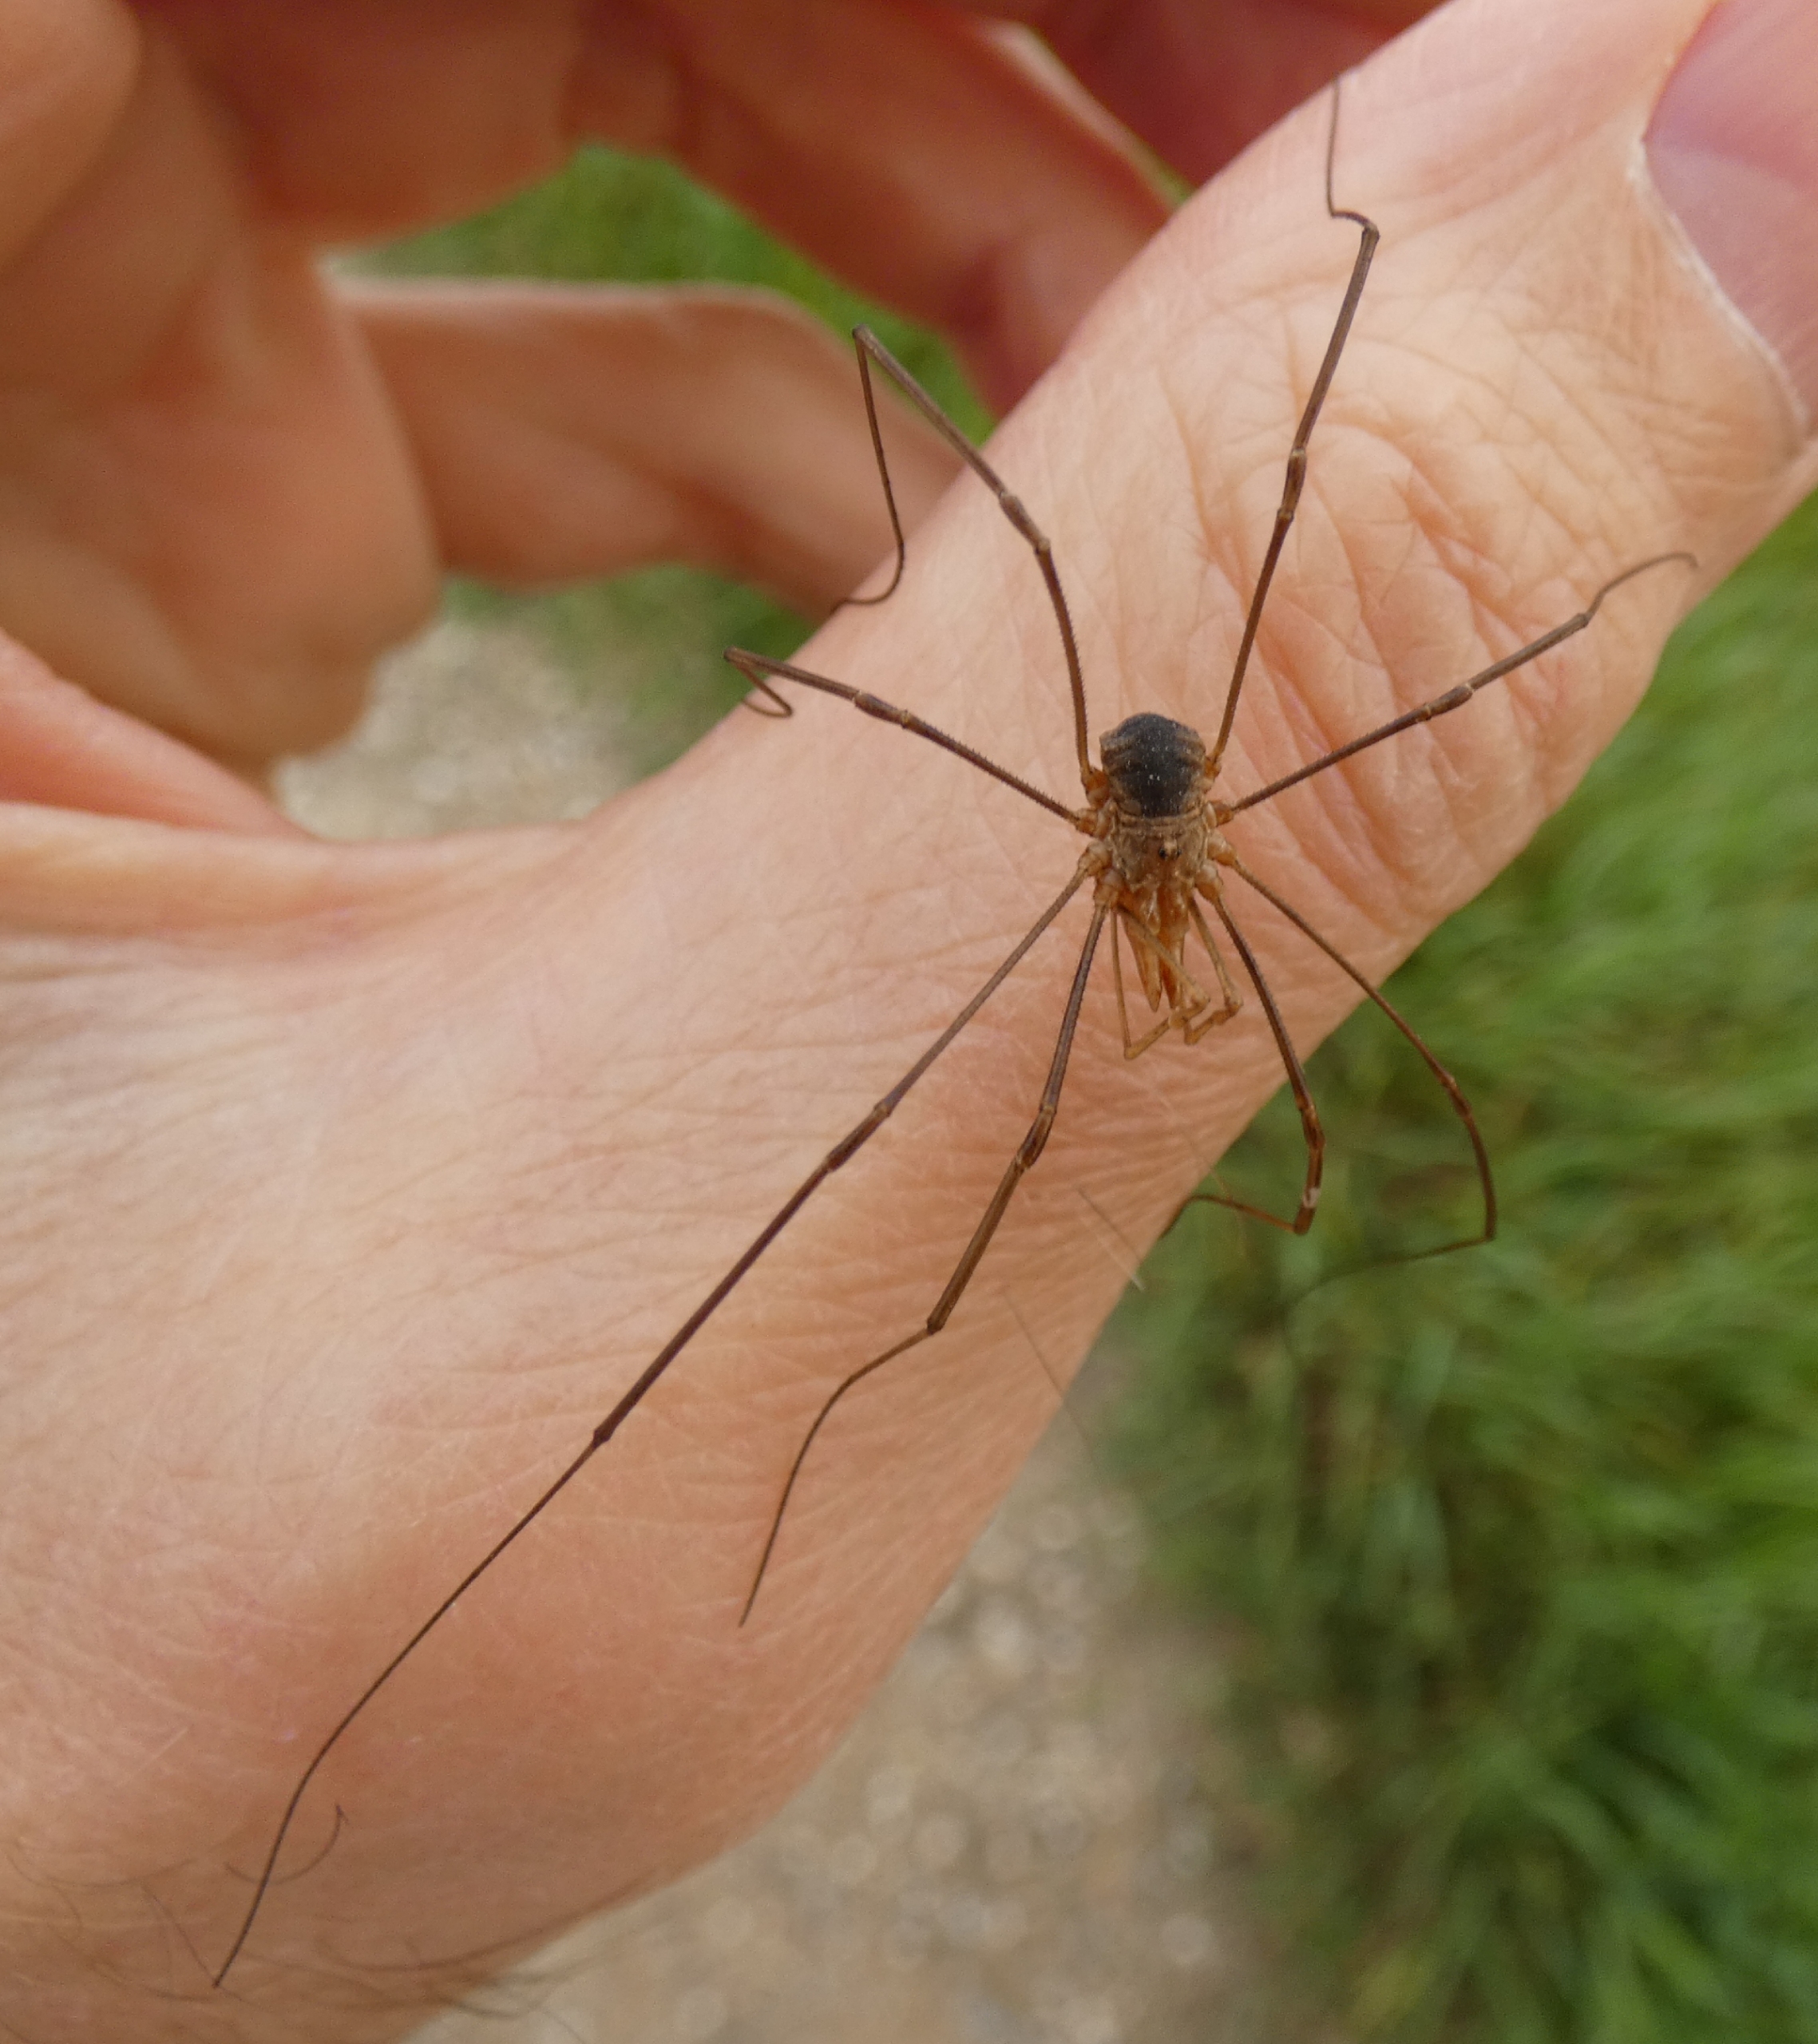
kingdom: Animalia
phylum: Arthropoda
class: Arachnida
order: Opiliones
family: Phalangiidae
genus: Phalangium
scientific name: Phalangium opilio
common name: Hornmejer
